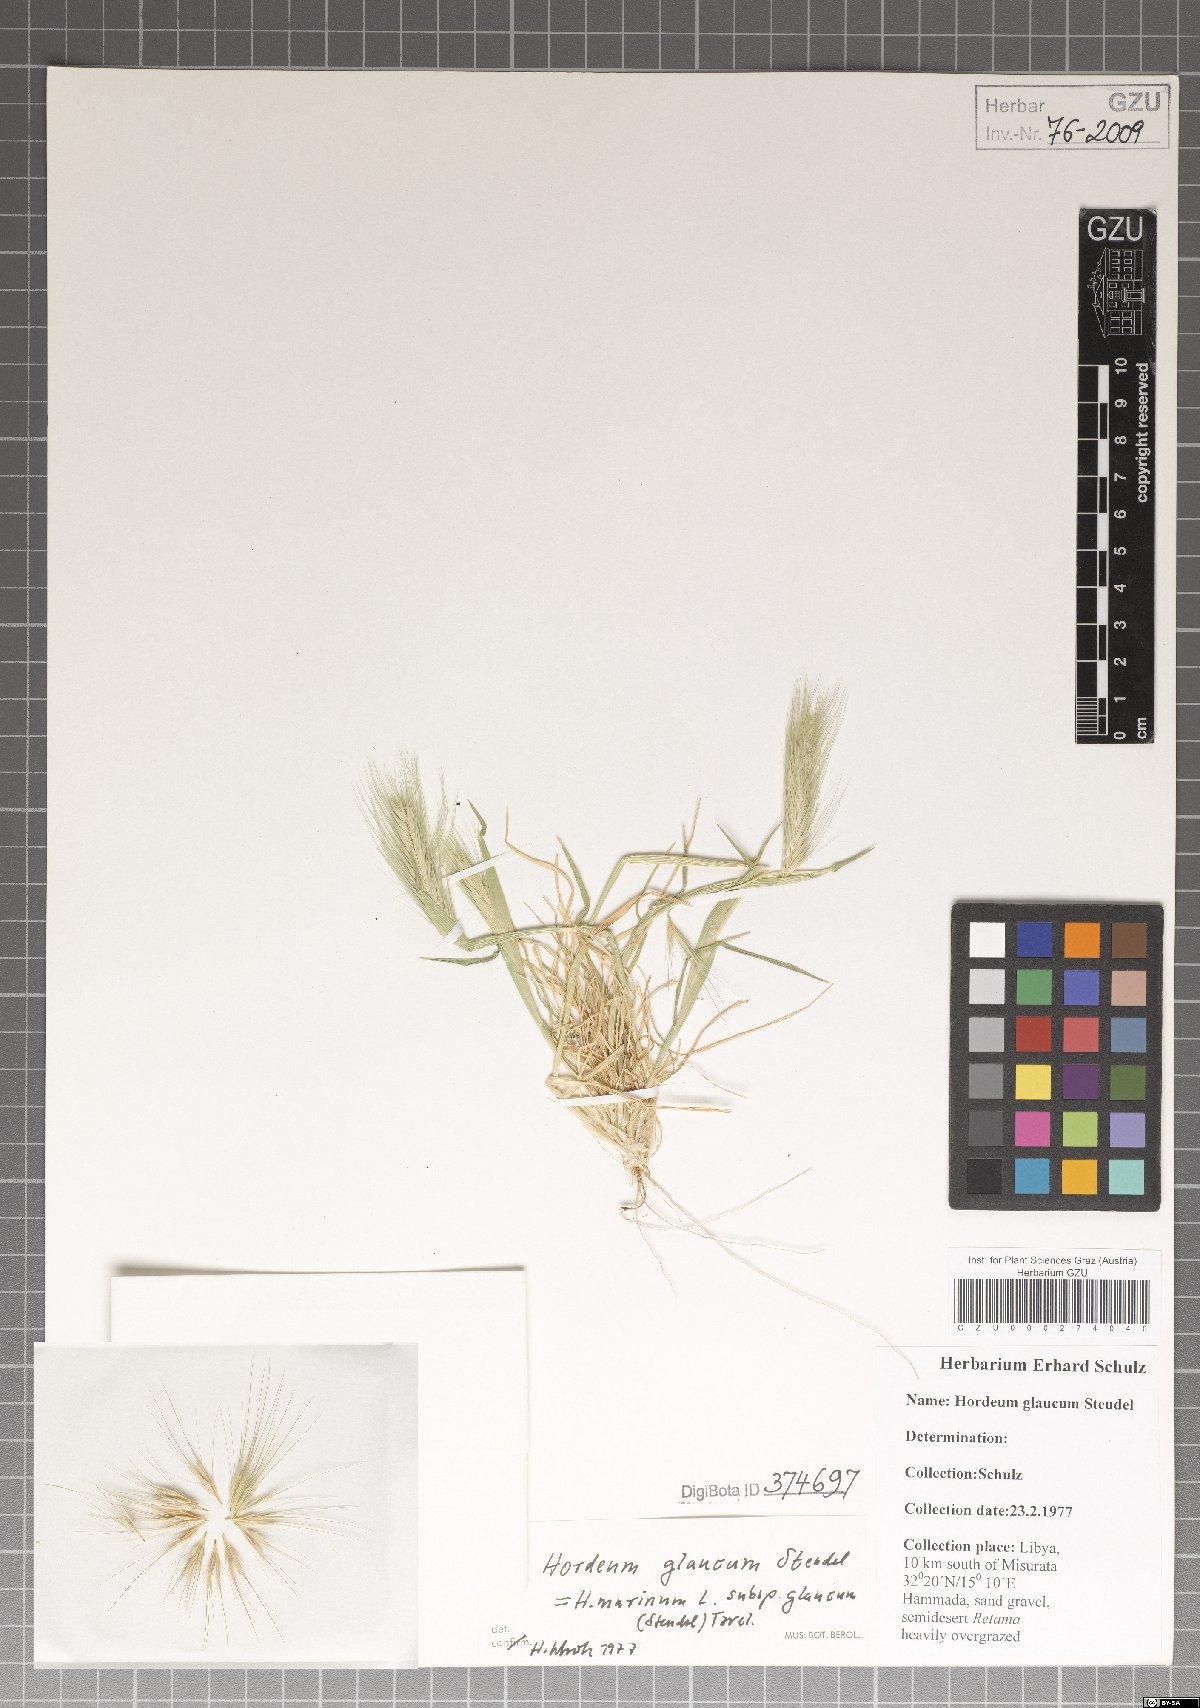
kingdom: Plantae
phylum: Tracheophyta
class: Liliopsida
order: Poales
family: Poaceae
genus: Hordeum
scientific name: Hordeum murinum
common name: Wall barley
